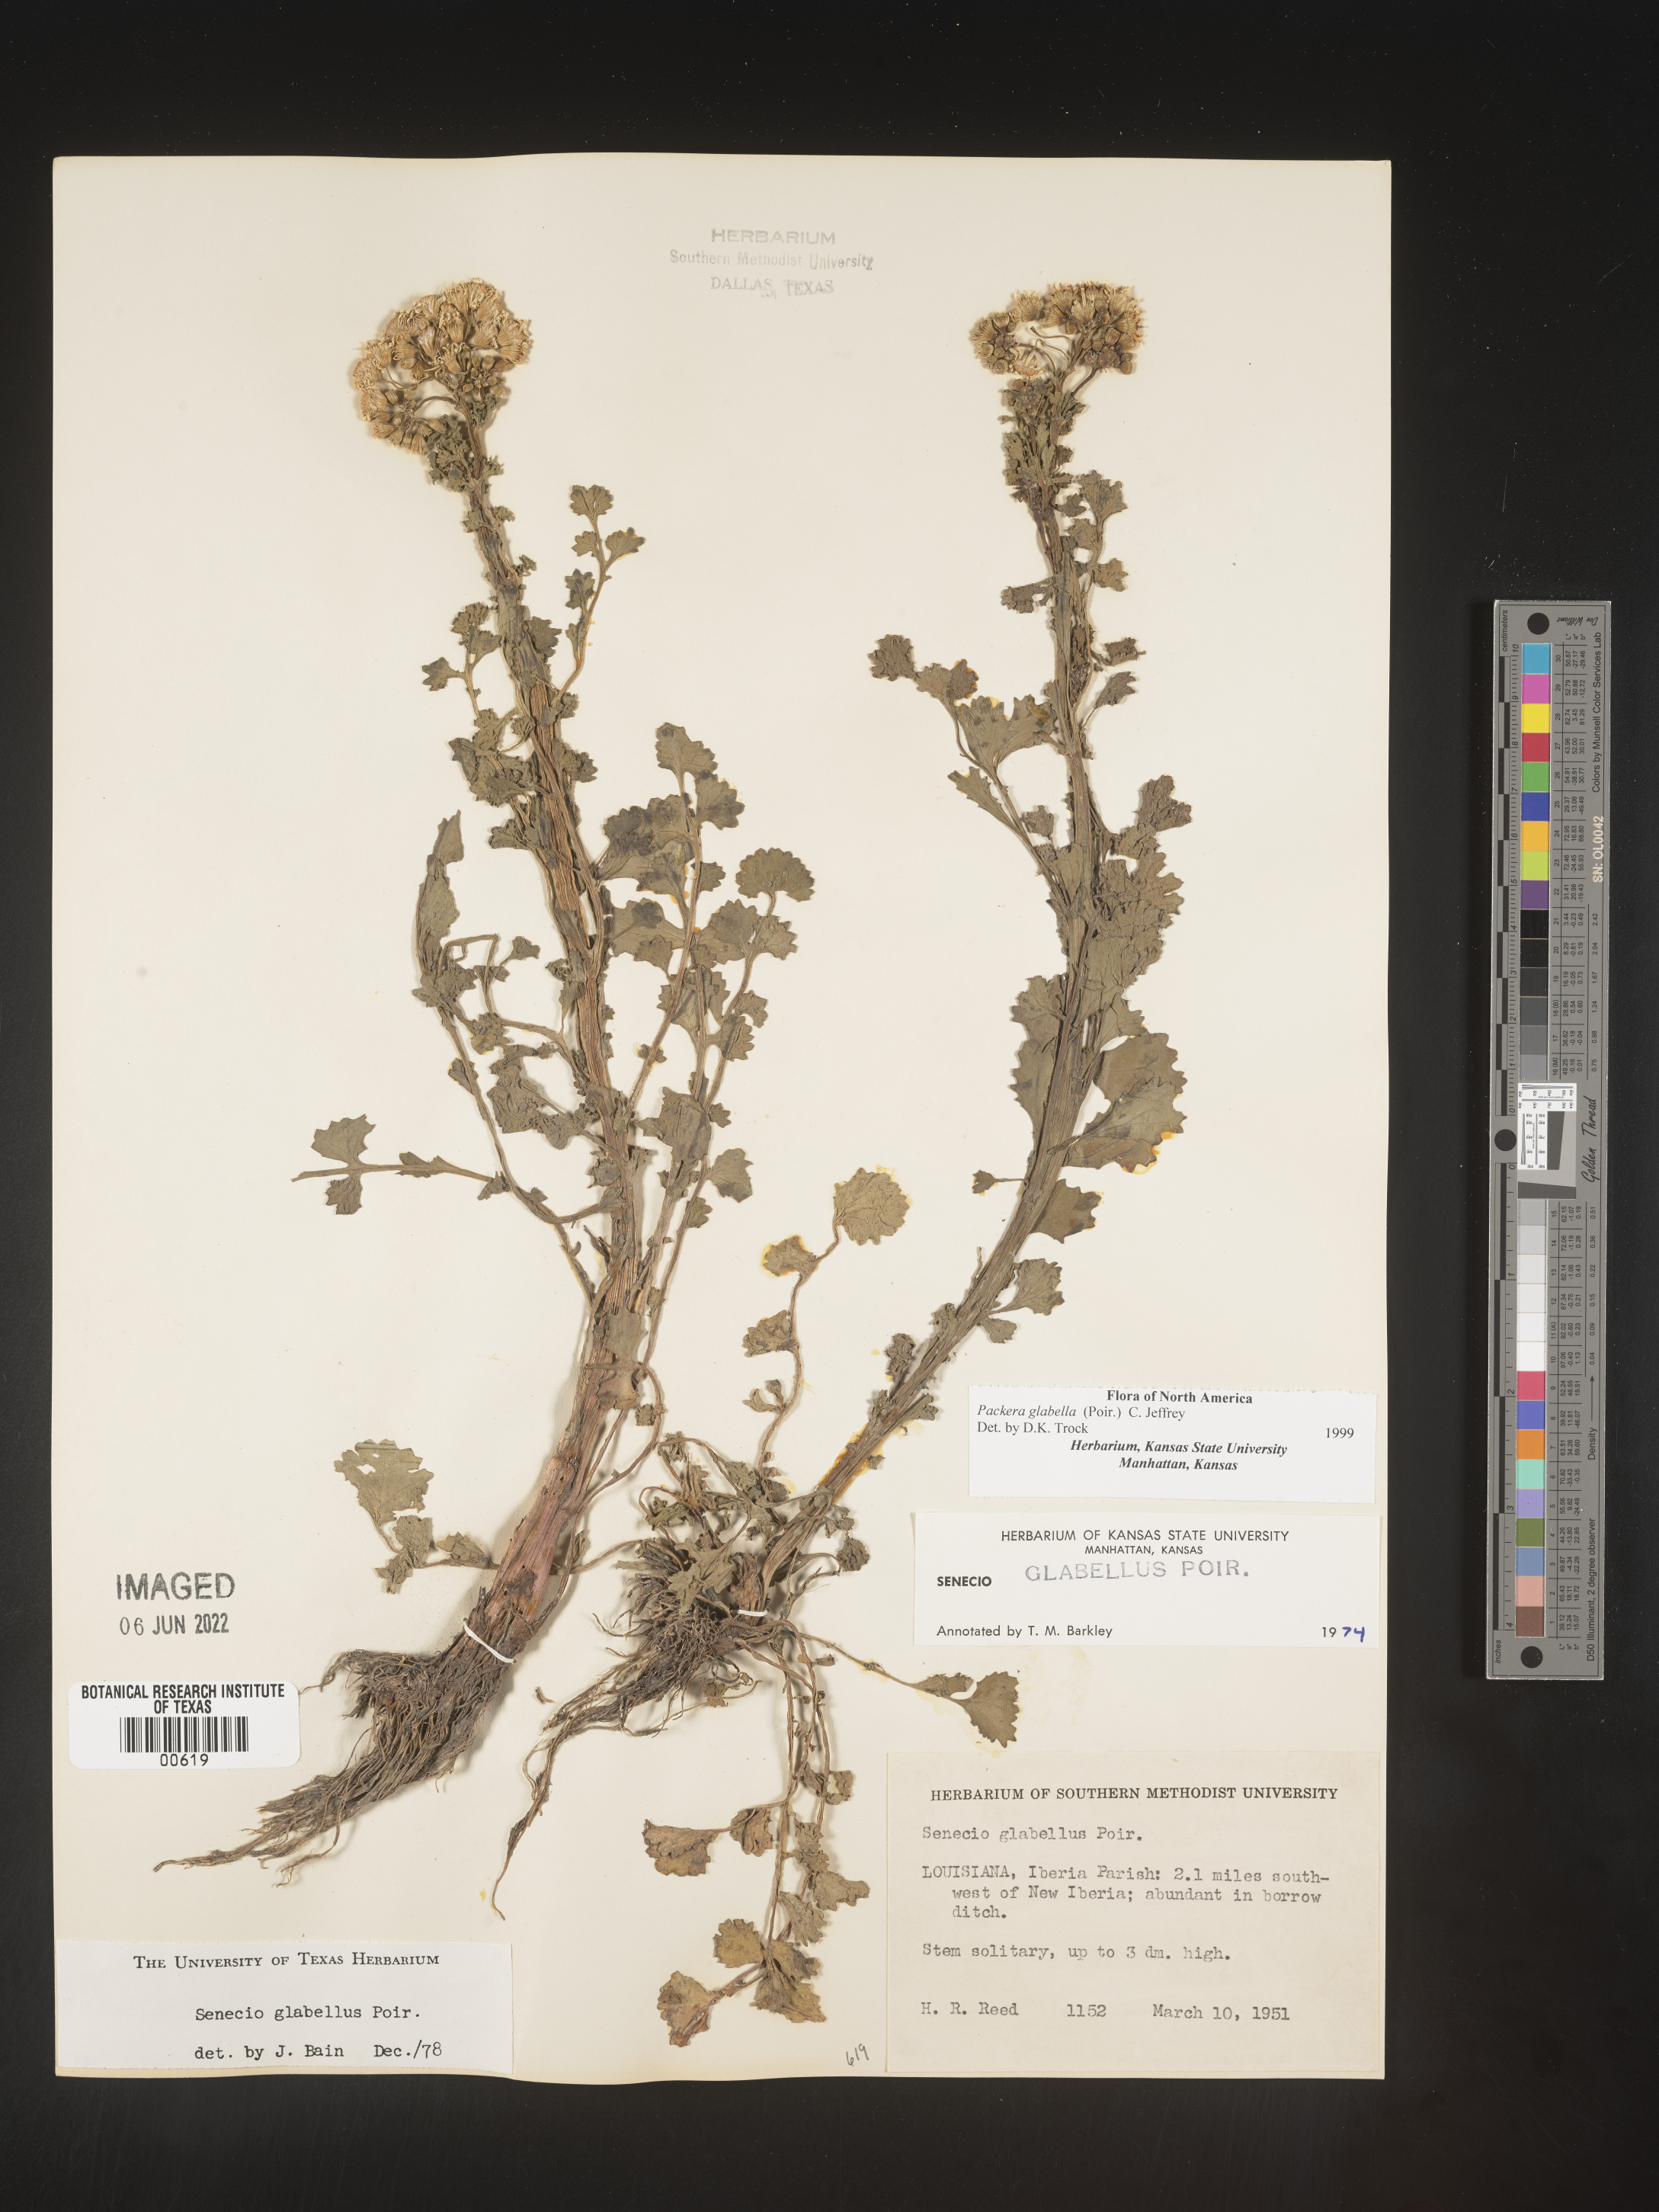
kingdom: Plantae
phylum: Tracheophyta
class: Magnoliopsida
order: Asterales
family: Asteraceae
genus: Packera
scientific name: Packera glabella
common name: Butterweed
